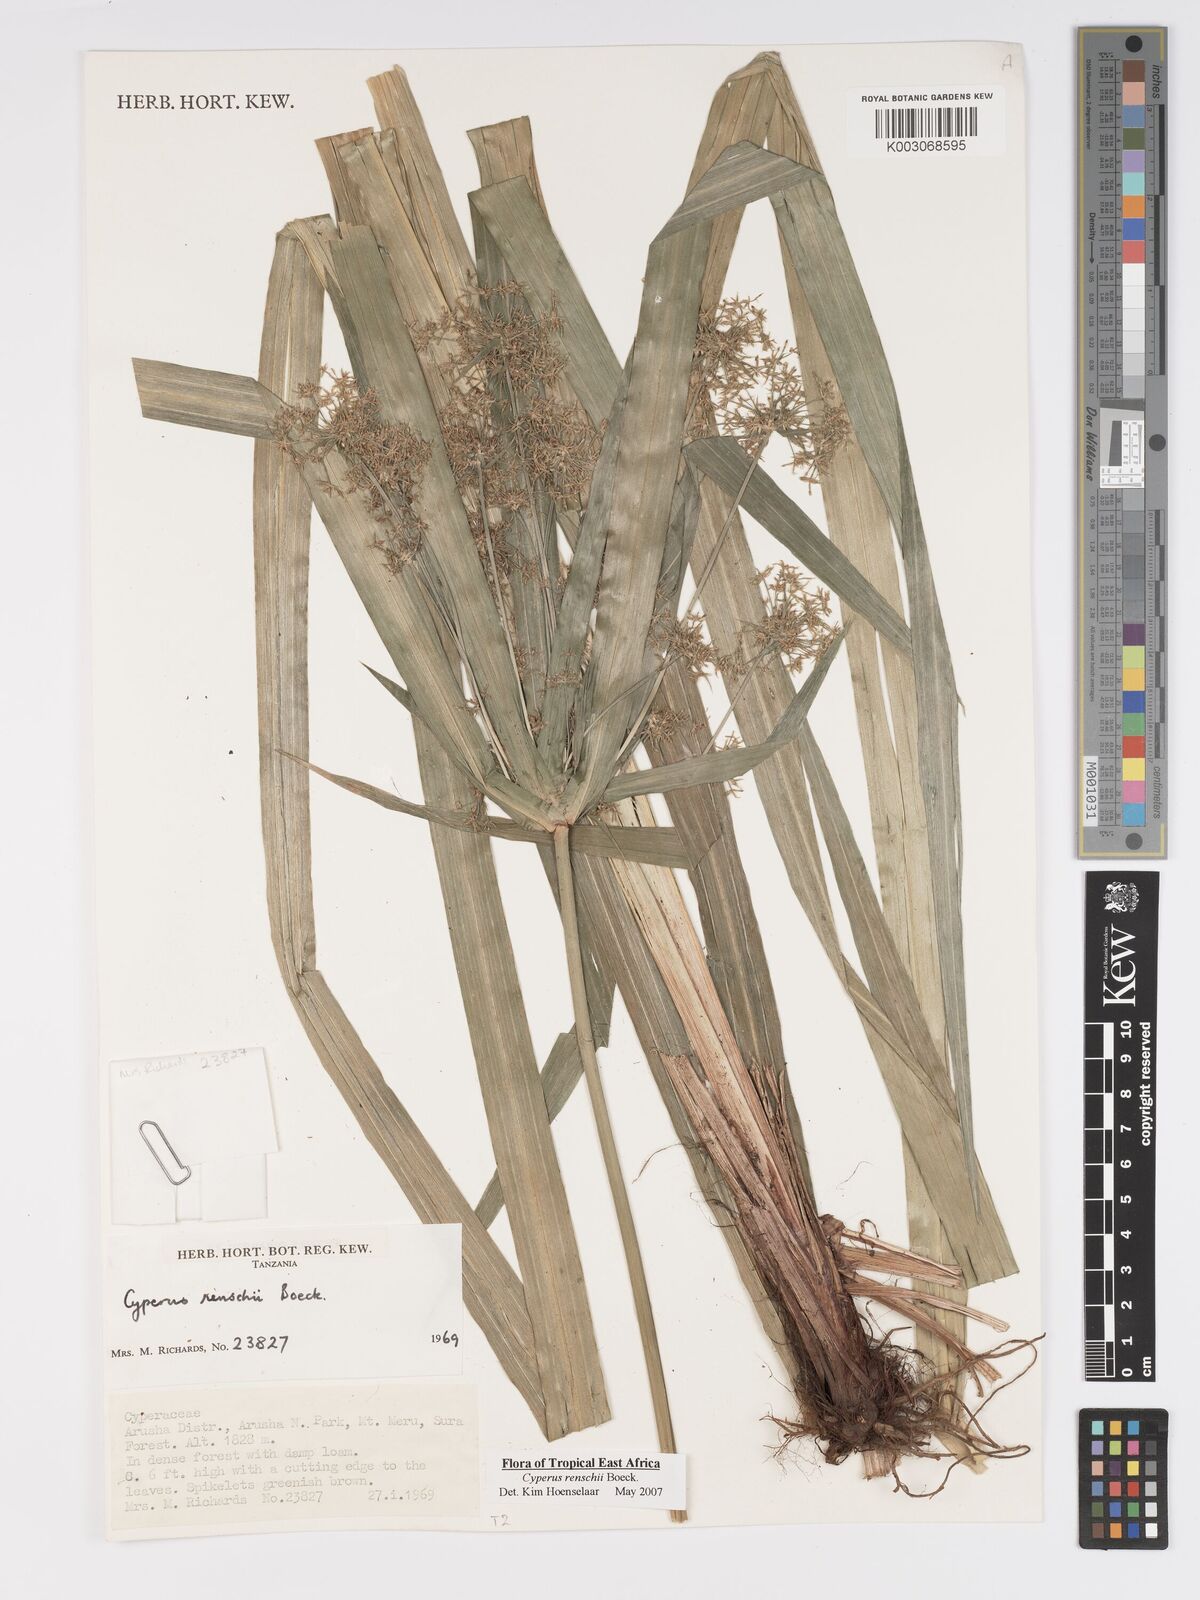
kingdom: Plantae
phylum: Tracheophyta
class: Liliopsida
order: Poales
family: Cyperaceae
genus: Cyperus
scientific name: Cyperus renschii
